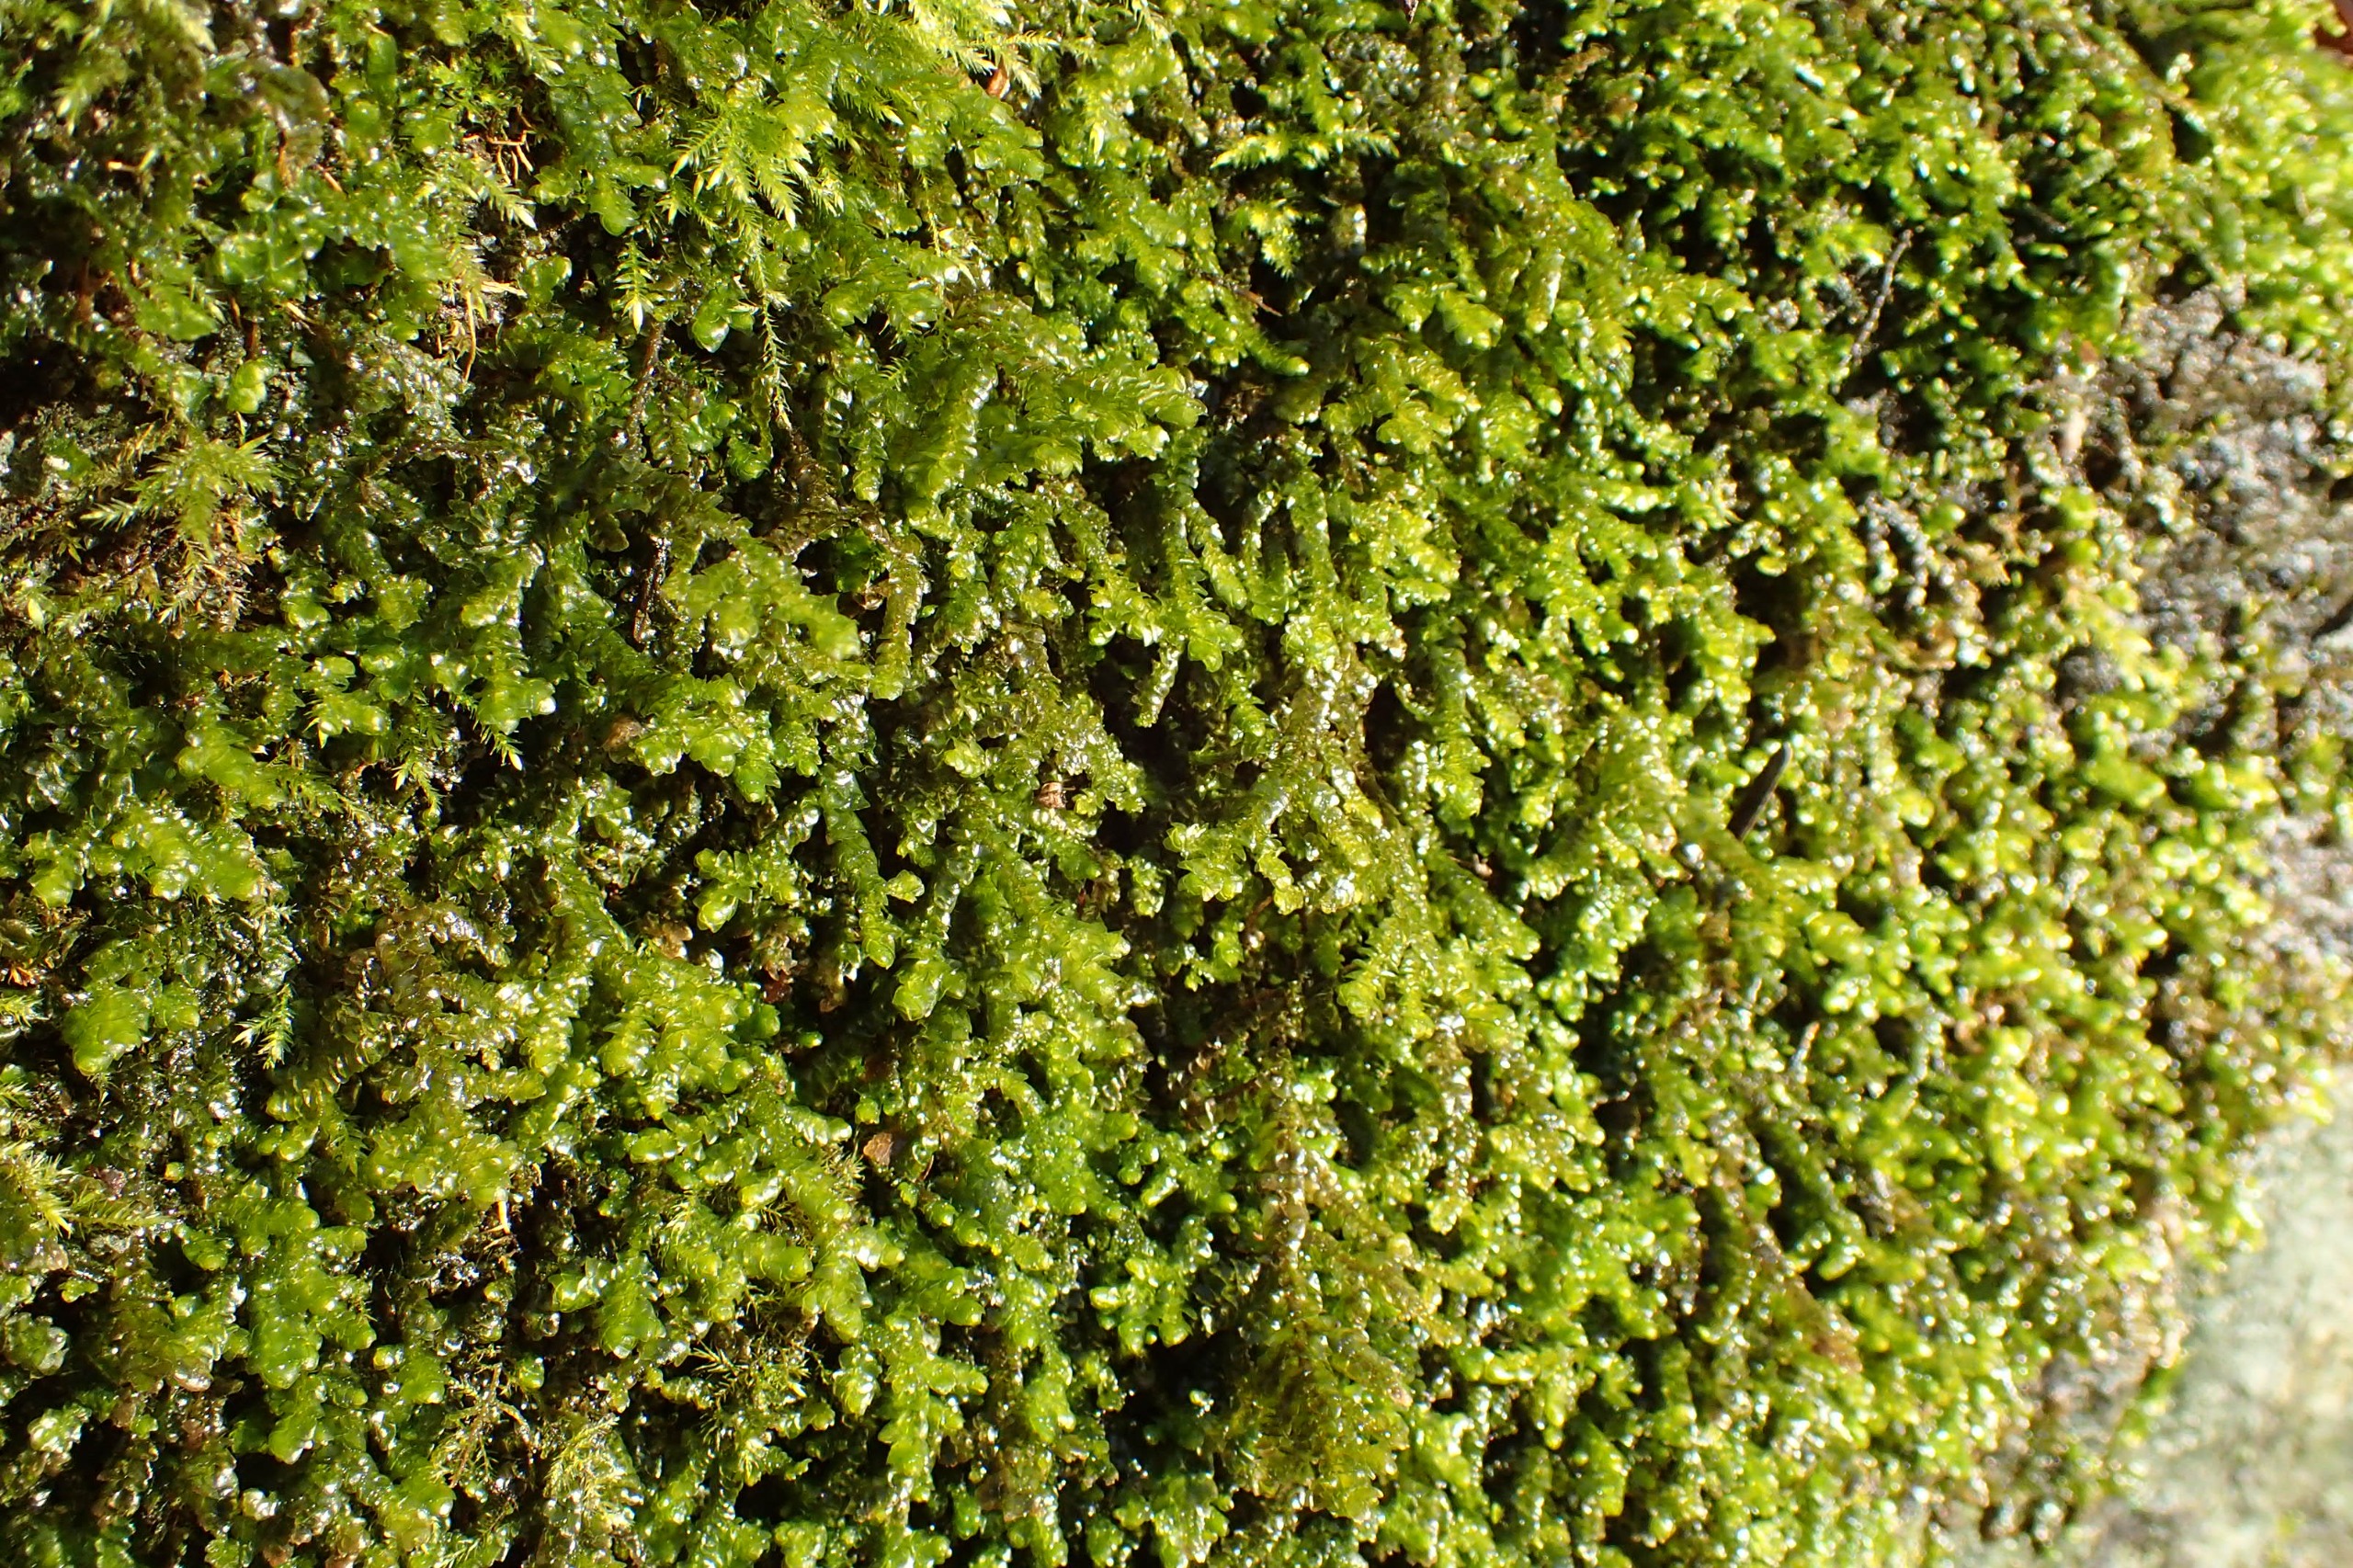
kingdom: Plantae
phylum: Marchantiophyta
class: Jungermanniopsida
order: Porellales
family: Porellaceae
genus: Porella
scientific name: Porella platyphylla
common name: Almindelig skælryg
